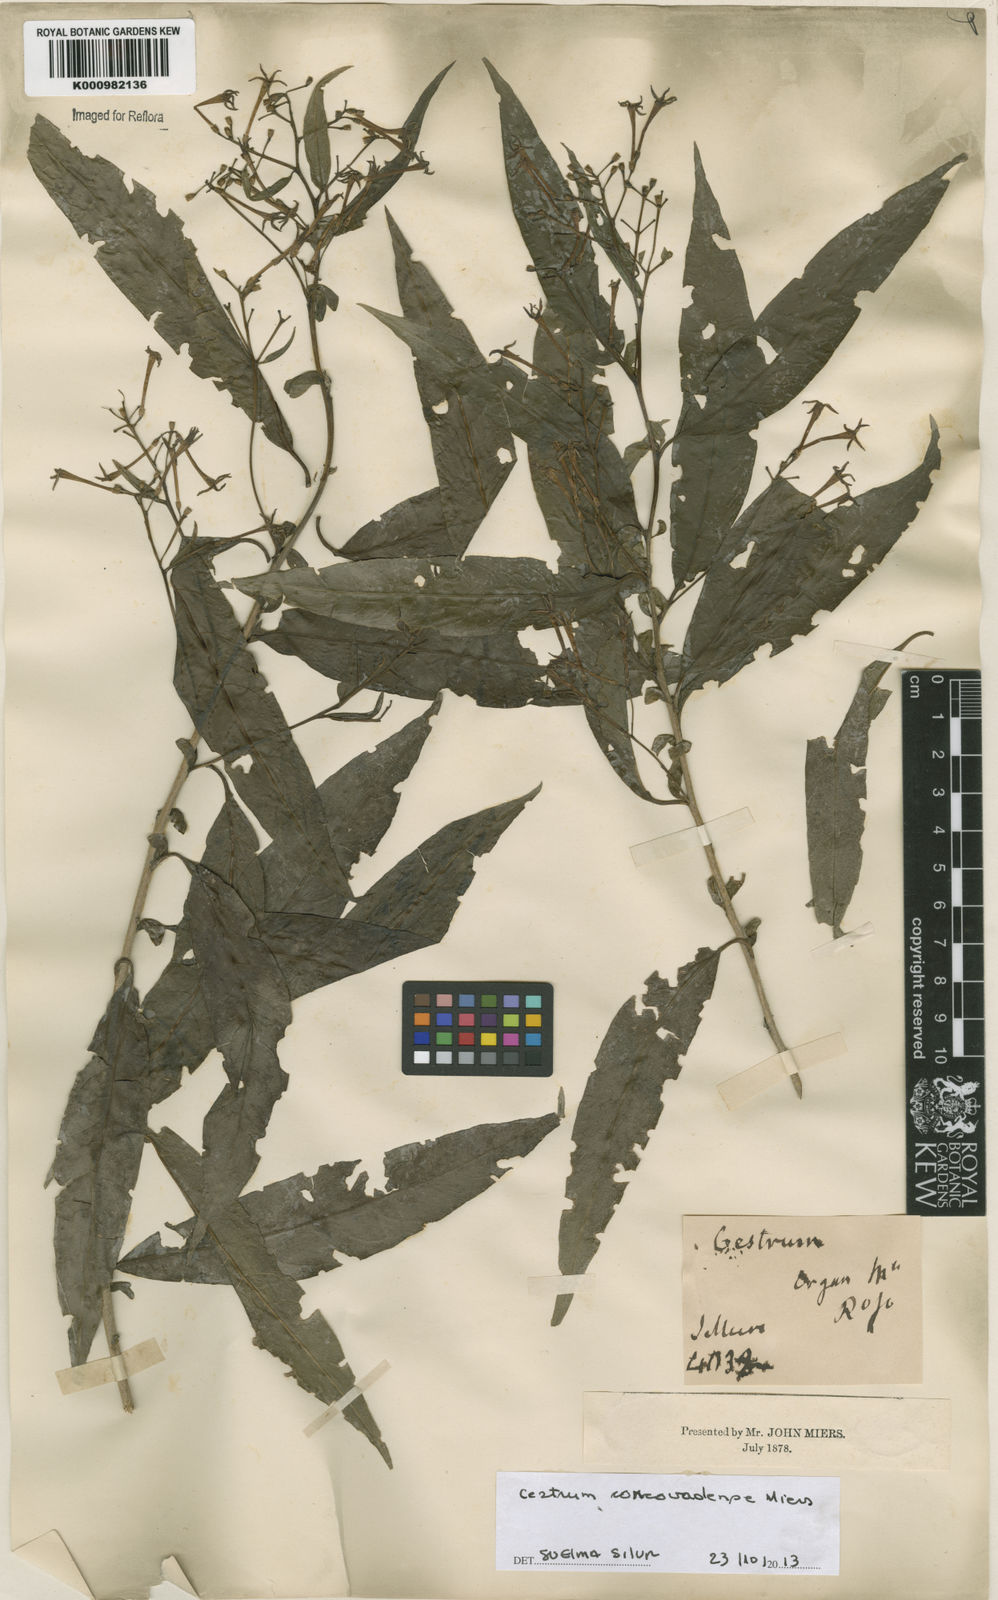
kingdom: Plantae
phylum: Tracheophyta
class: Magnoliopsida
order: Solanales
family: Solanaceae
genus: Solanum
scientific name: Solanum hirtellum
